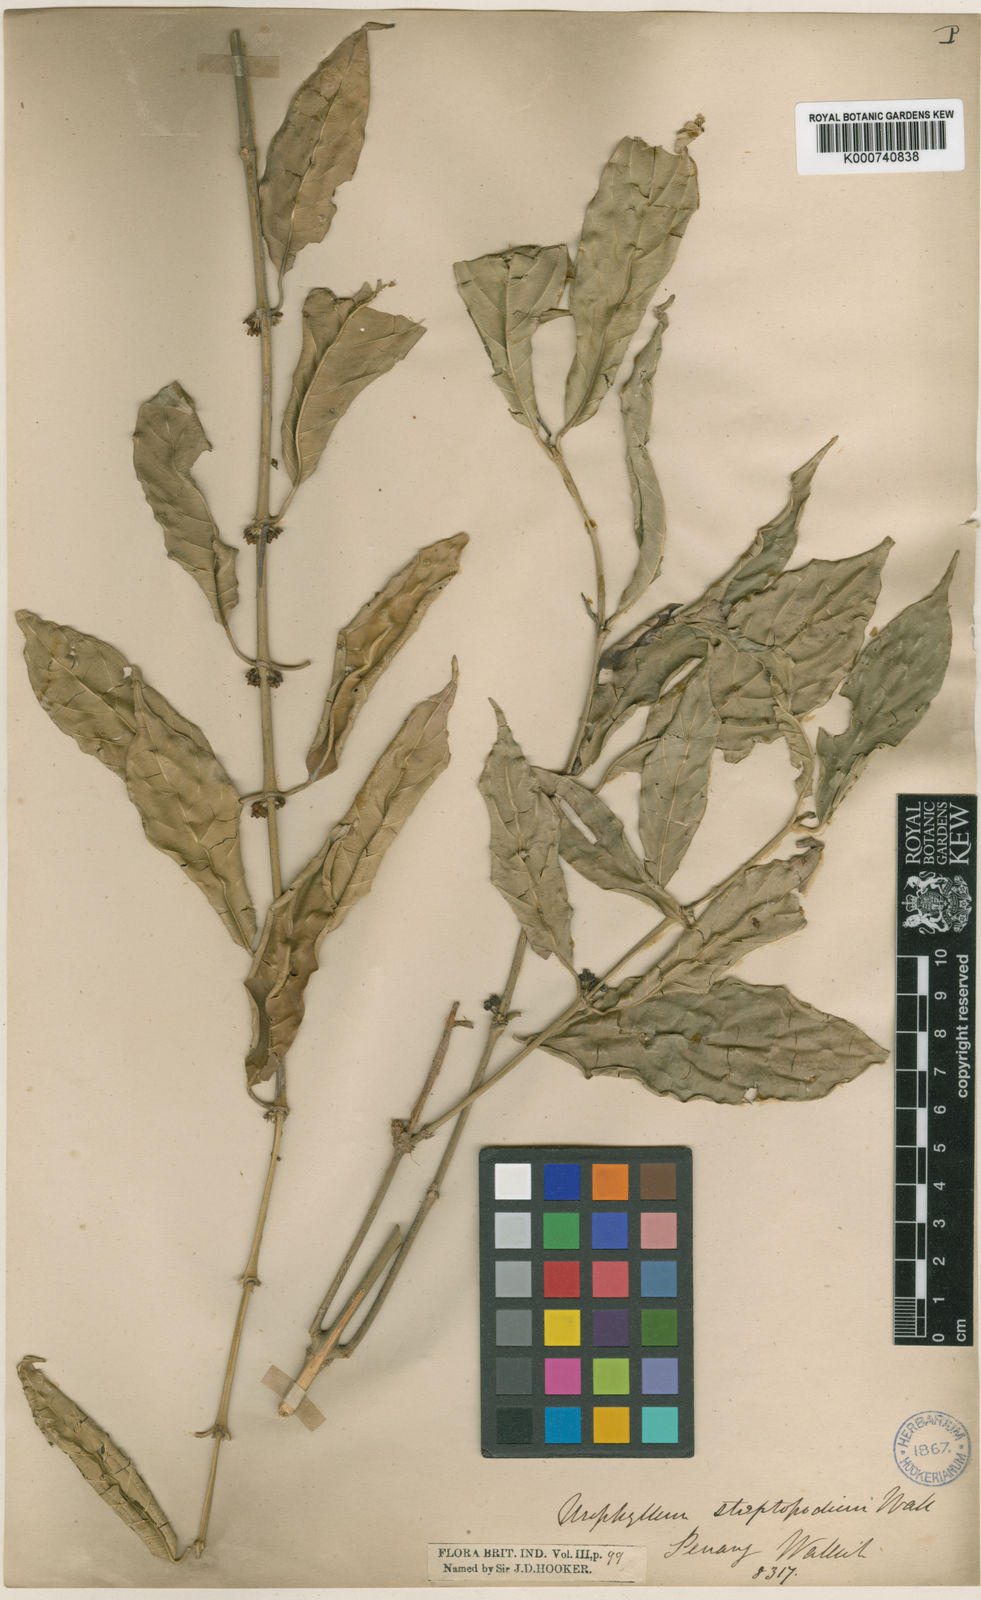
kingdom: Plantae
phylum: Tracheophyta
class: Magnoliopsida
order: Gentianales
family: Rubiaceae
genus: Urophyllum
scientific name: Urophyllum
